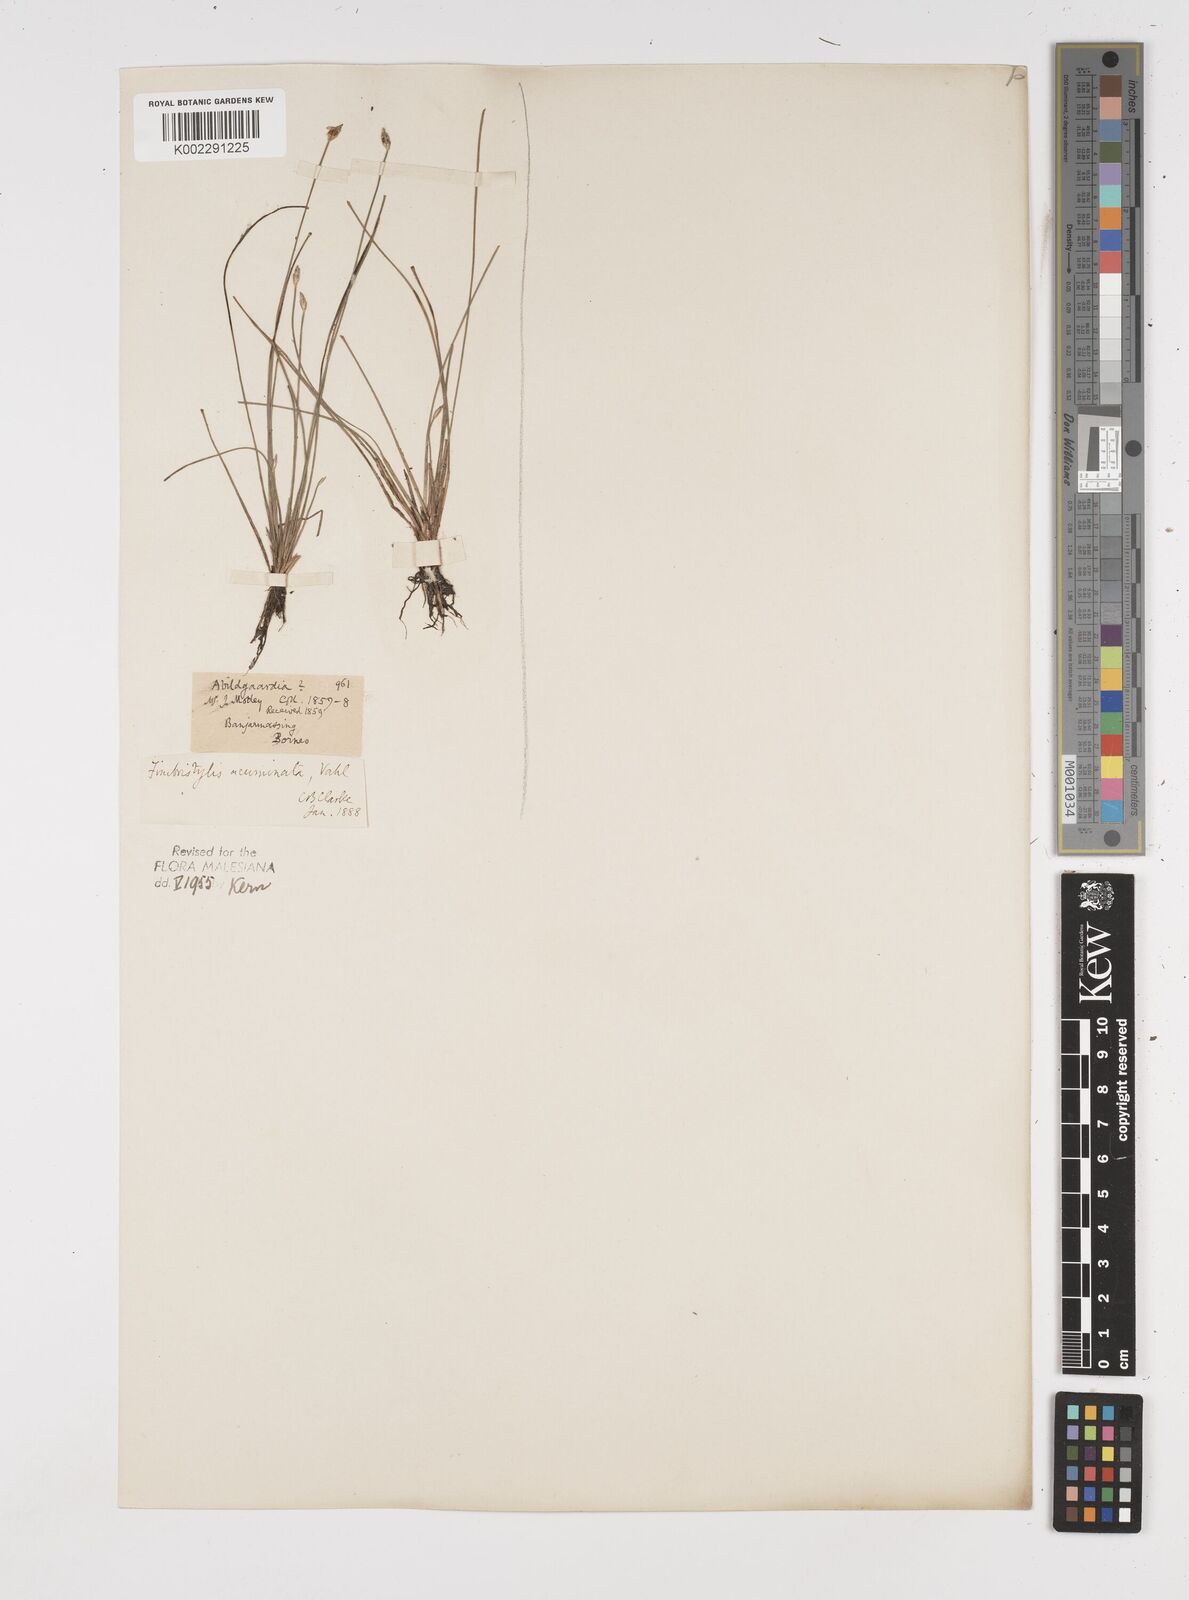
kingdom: Plantae
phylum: Tracheophyta
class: Liliopsida
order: Poales
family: Cyperaceae
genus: Fimbristylis
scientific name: Fimbristylis acuminata
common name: Pointed fimbristylis
